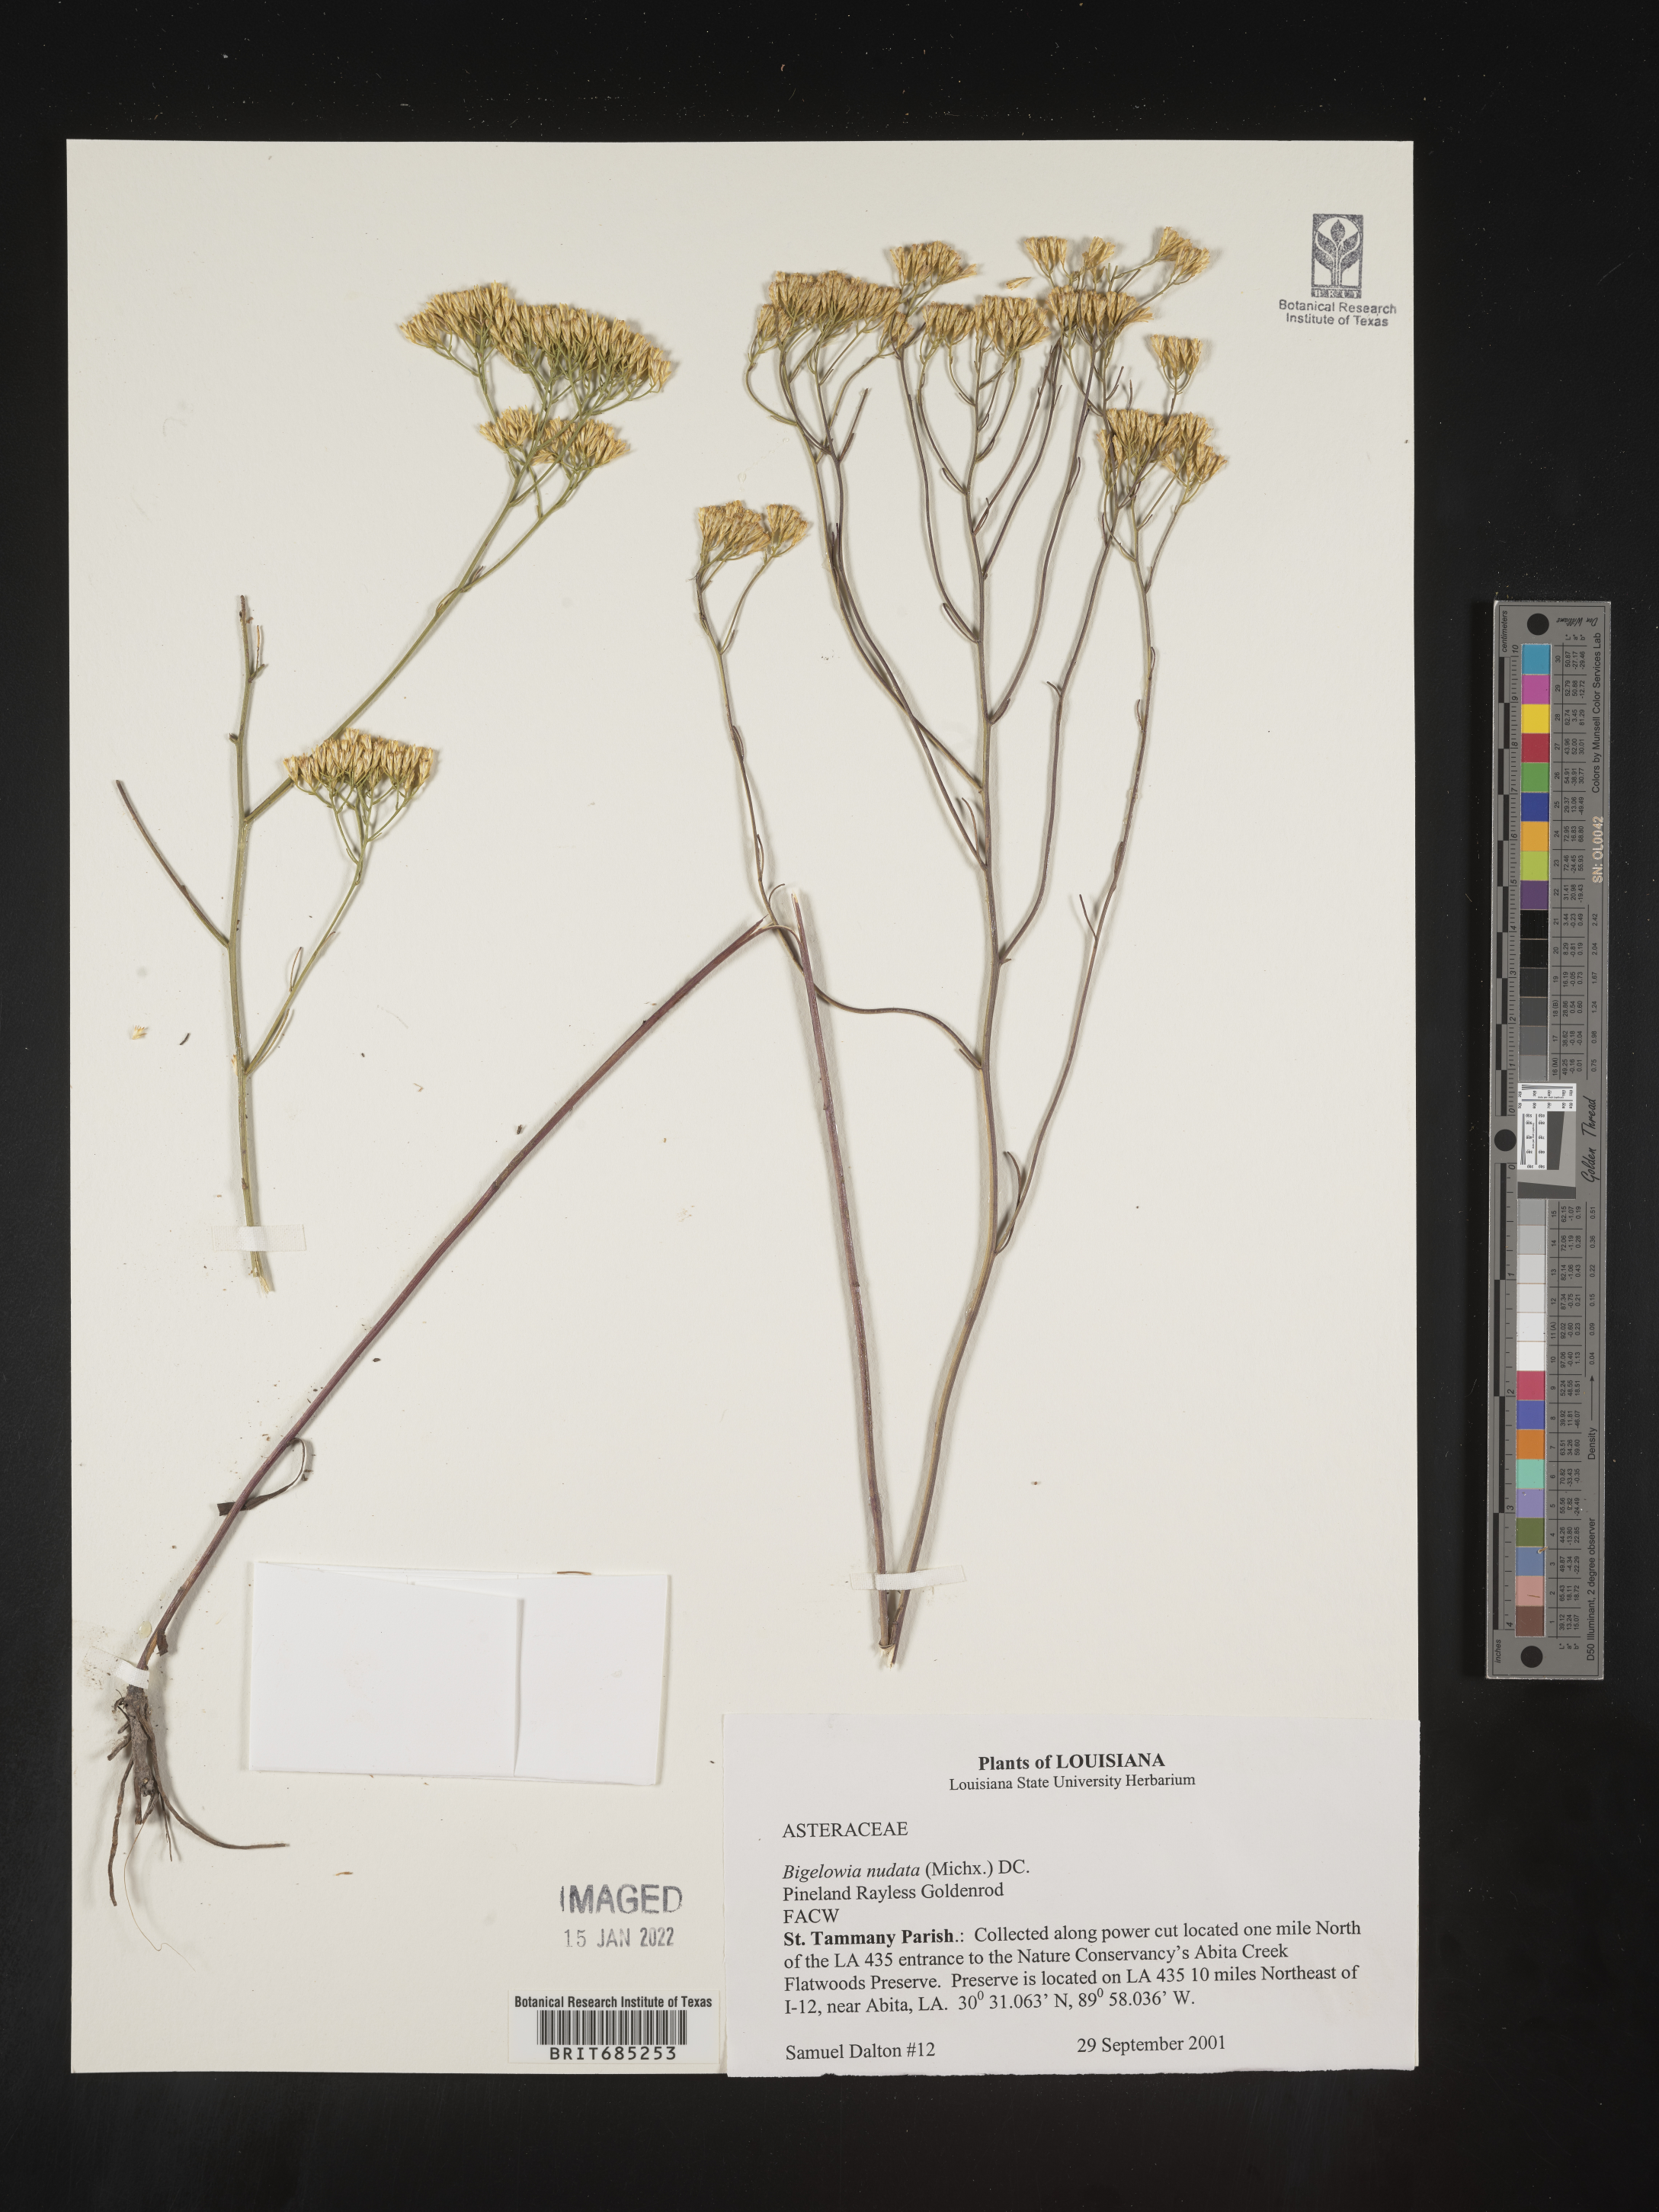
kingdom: Plantae
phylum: Tracheophyta
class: Magnoliopsida
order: Asterales
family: Asteraceae
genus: Bigelowia
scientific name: Bigelowia nuttallii
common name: Nuttall's rayless-goldenrod
